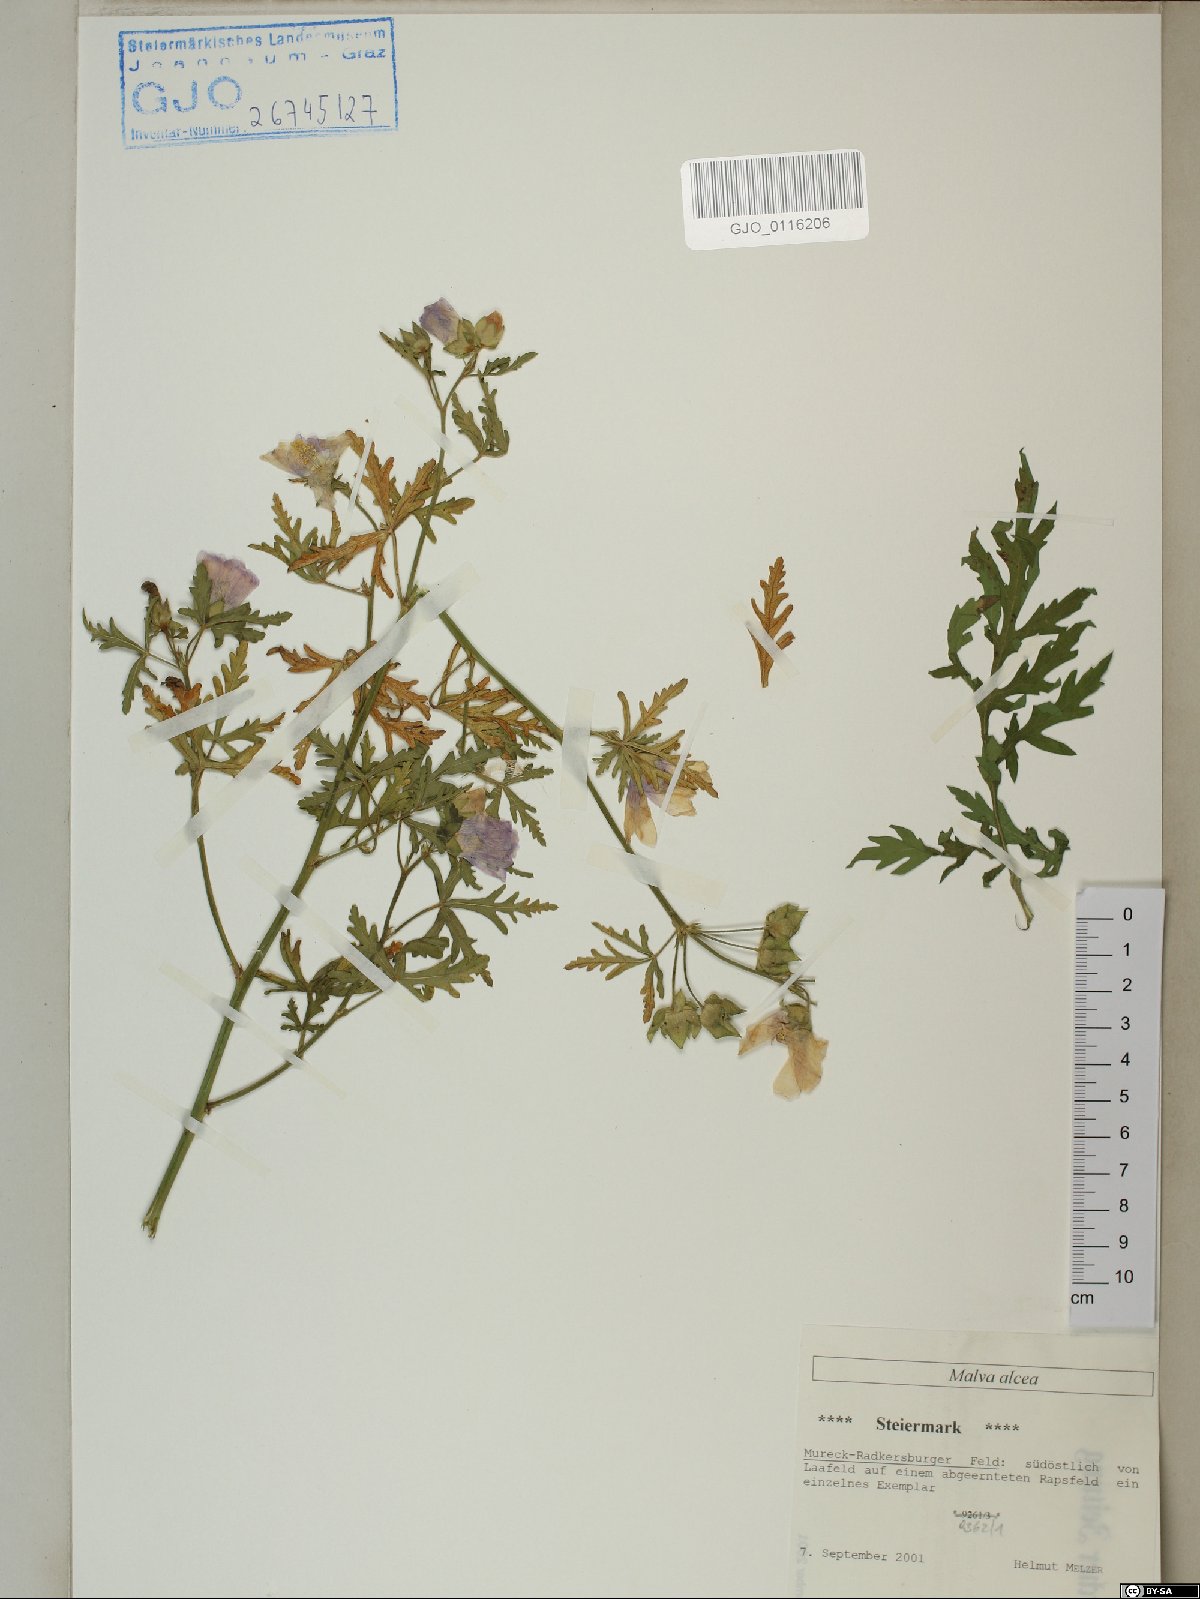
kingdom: Plantae
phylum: Tracheophyta
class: Magnoliopsida
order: Malvales
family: Malvaceae
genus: Malva
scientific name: Malva alcea
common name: Greater musk-mallow
